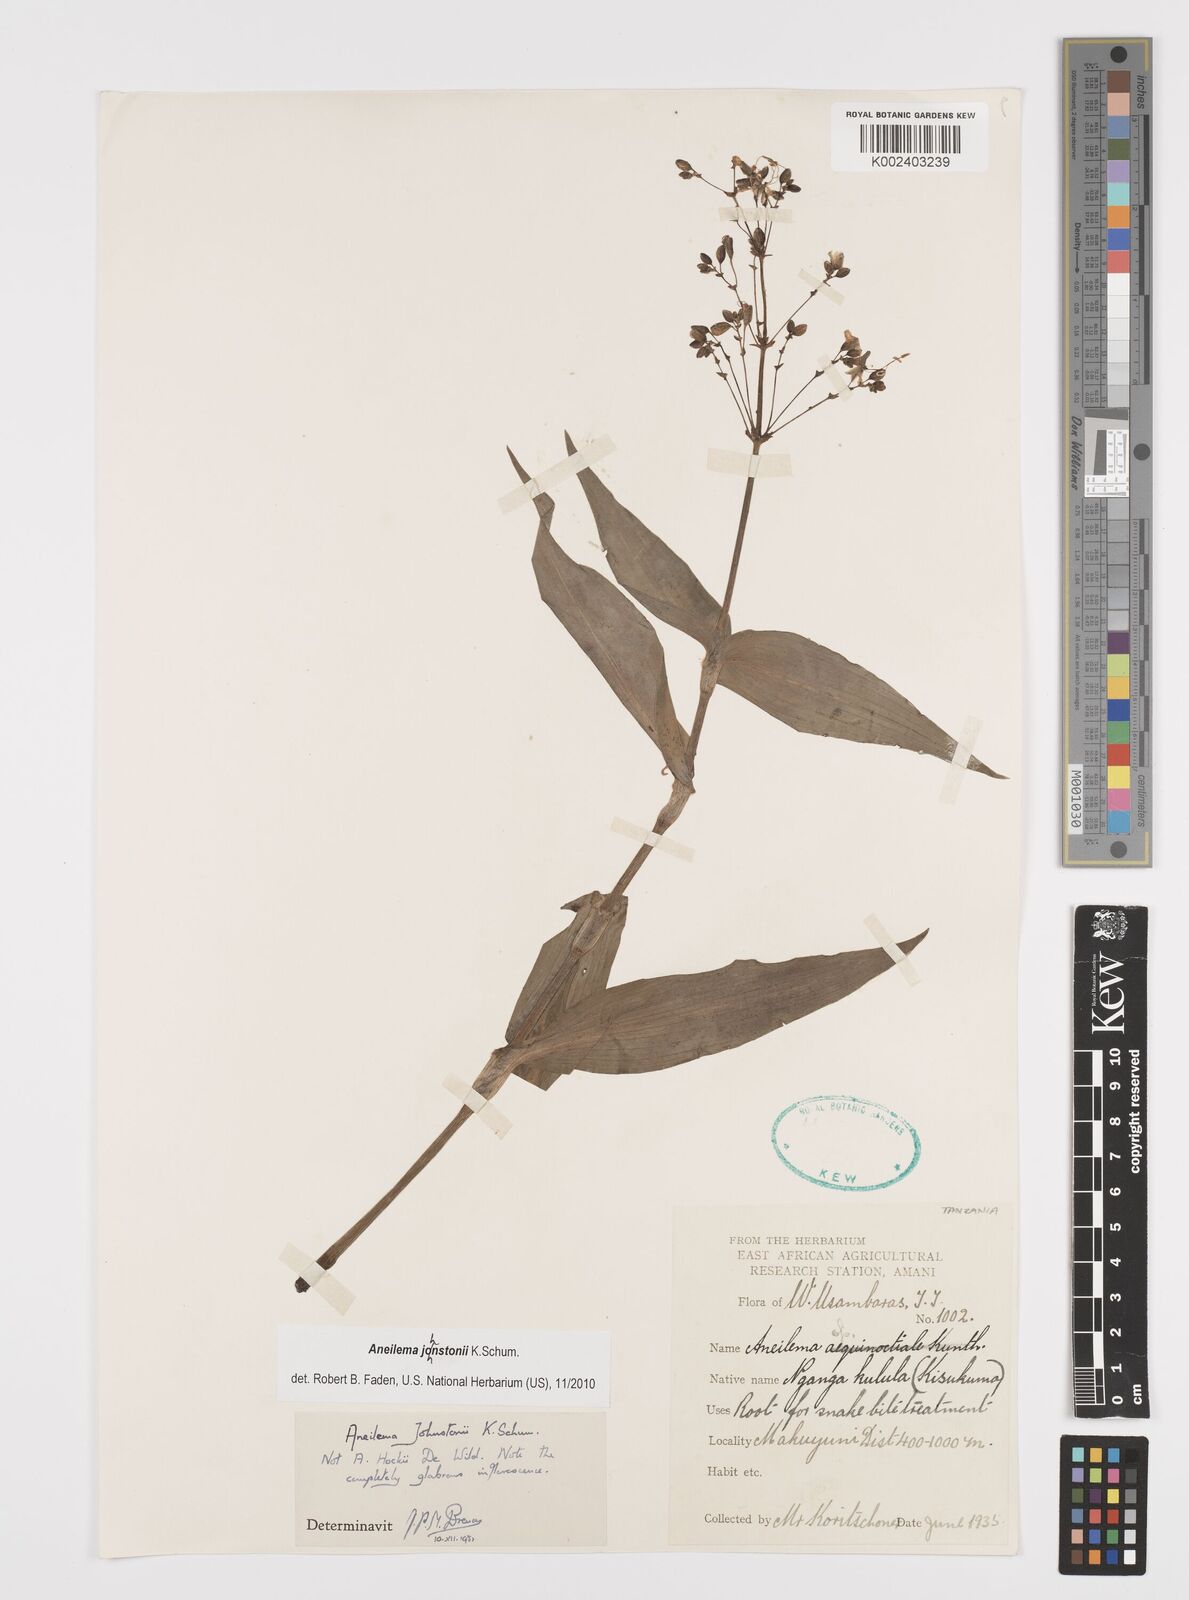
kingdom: Plantae
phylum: Tracheophyta
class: Liliopsida
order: Commelinales
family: Commelinaceae
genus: Aneilema
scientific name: Aneilema johnstonii
